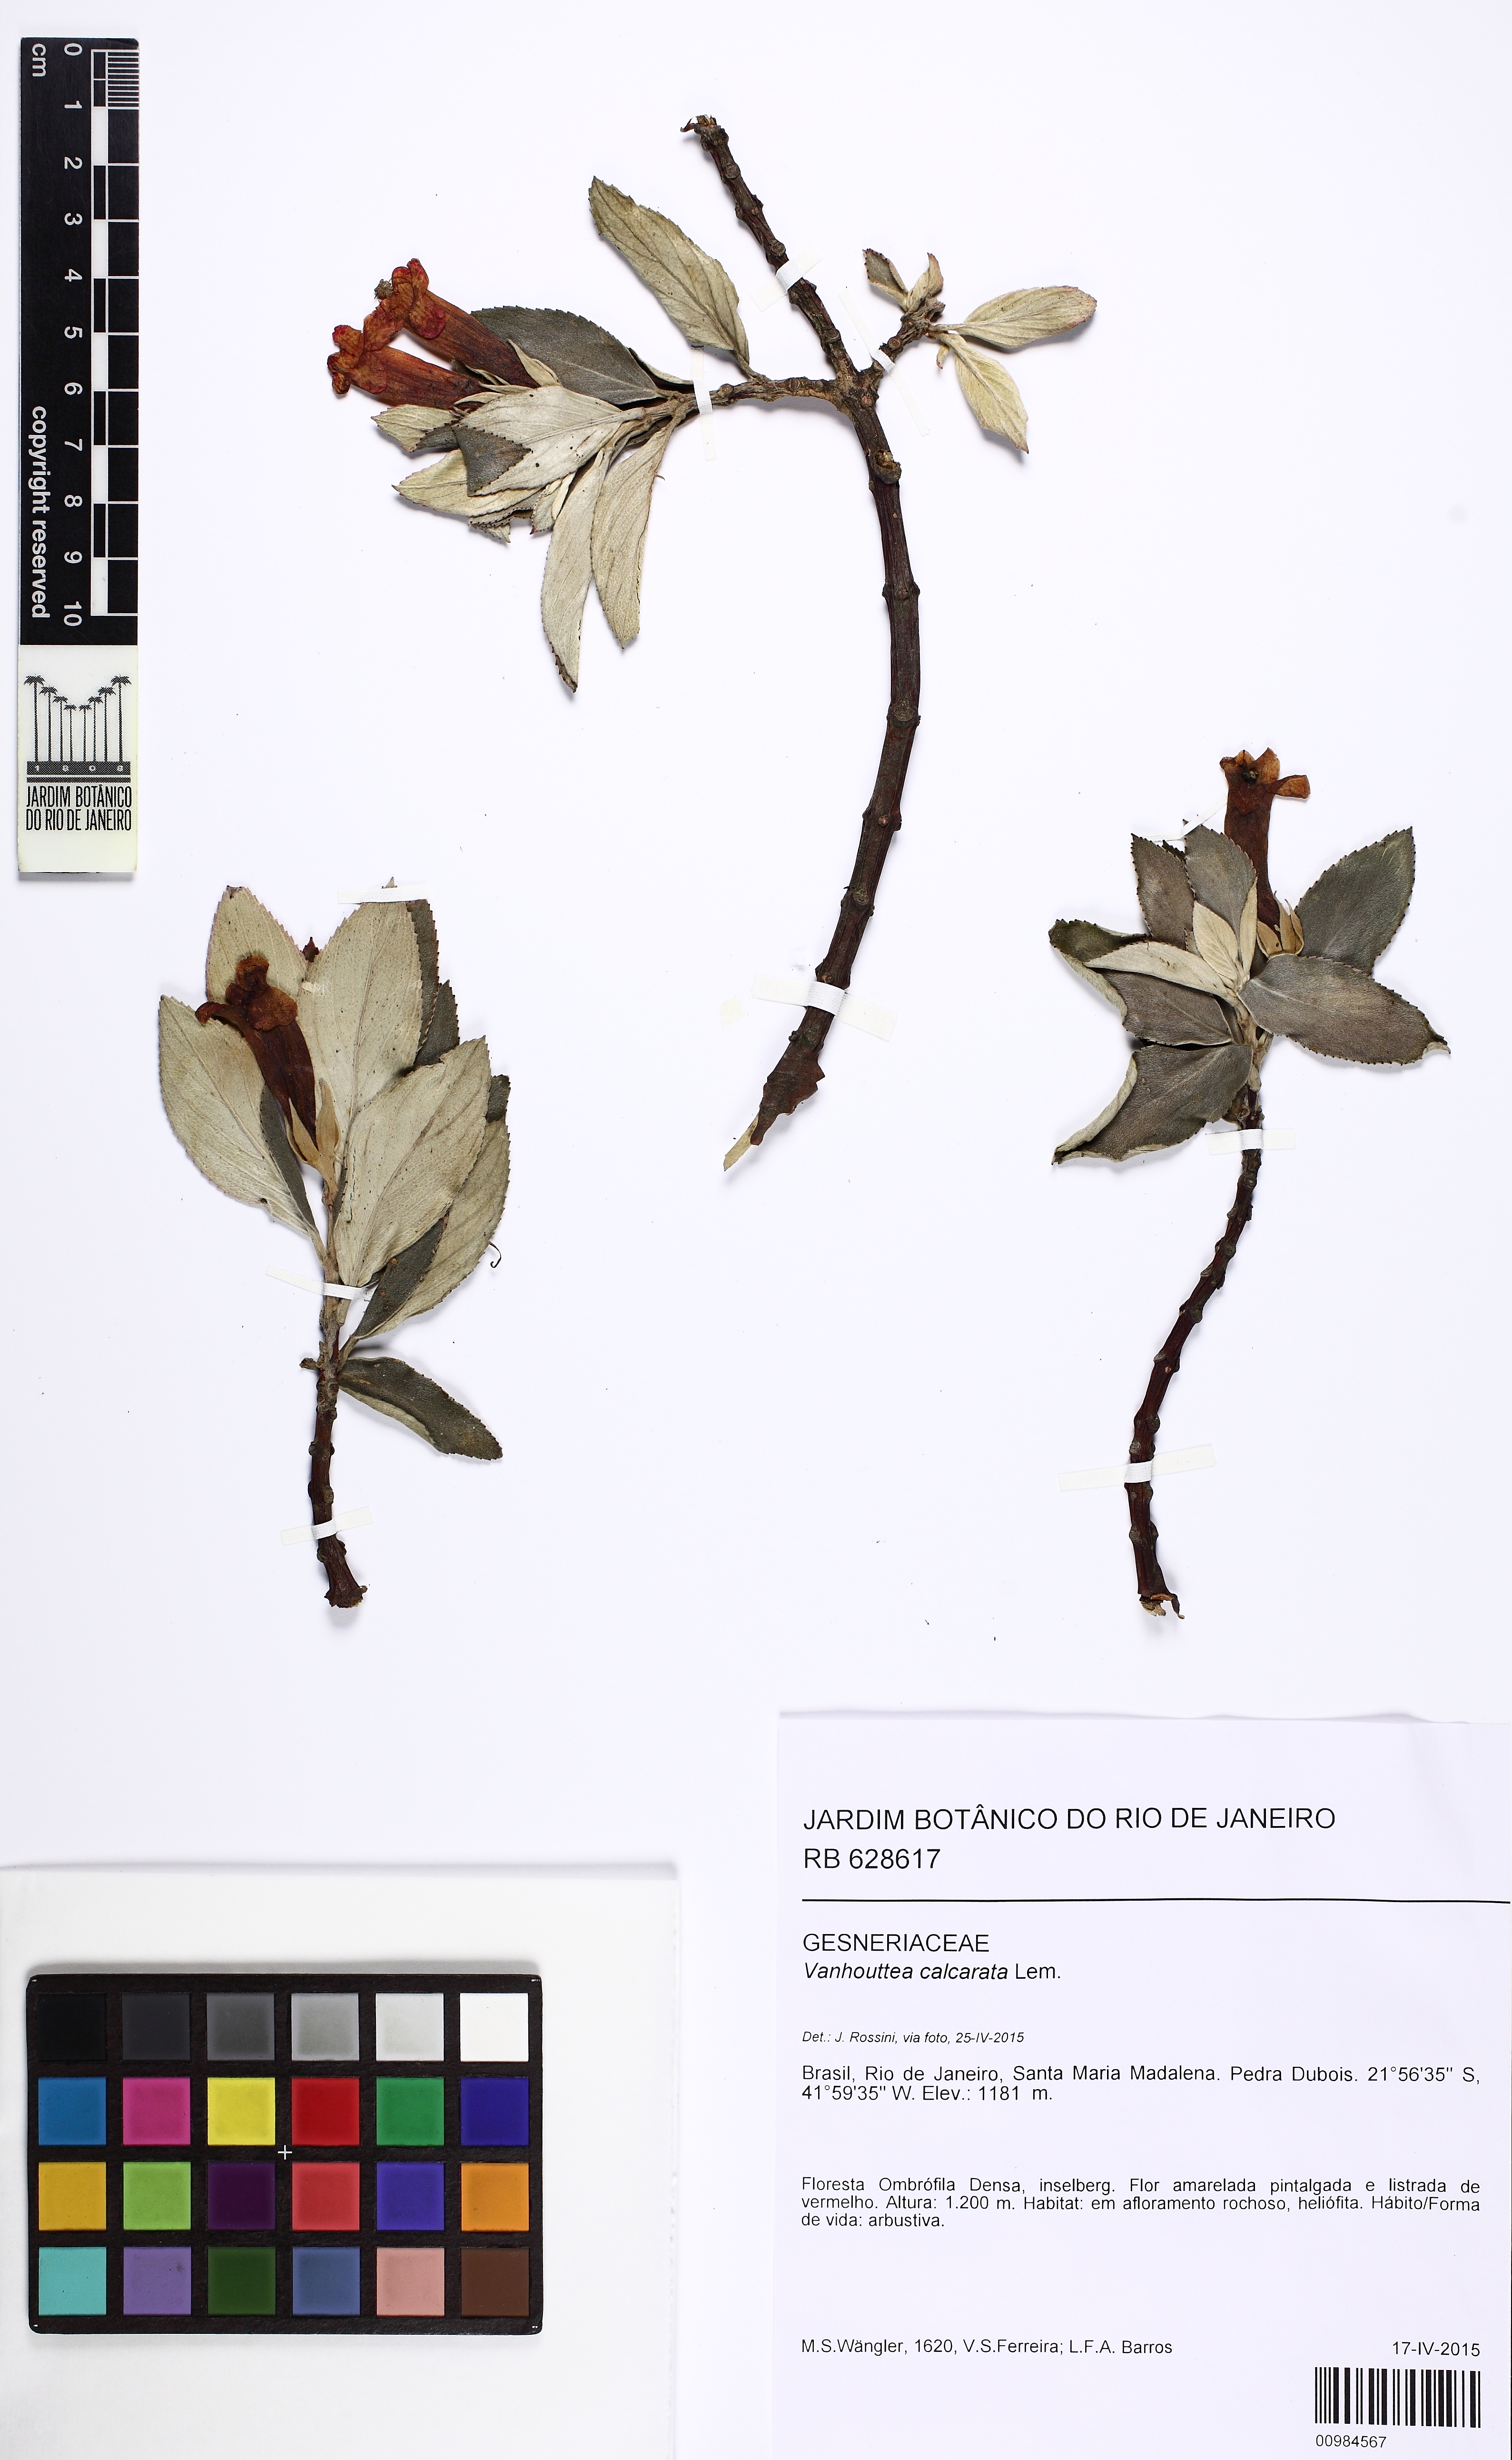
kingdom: Plantae
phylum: Tracheophyta
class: Magnoliopsida
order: Lamiales
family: Gesneriaceae
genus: Vanhouttea
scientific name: Vanhouttea calcarata
